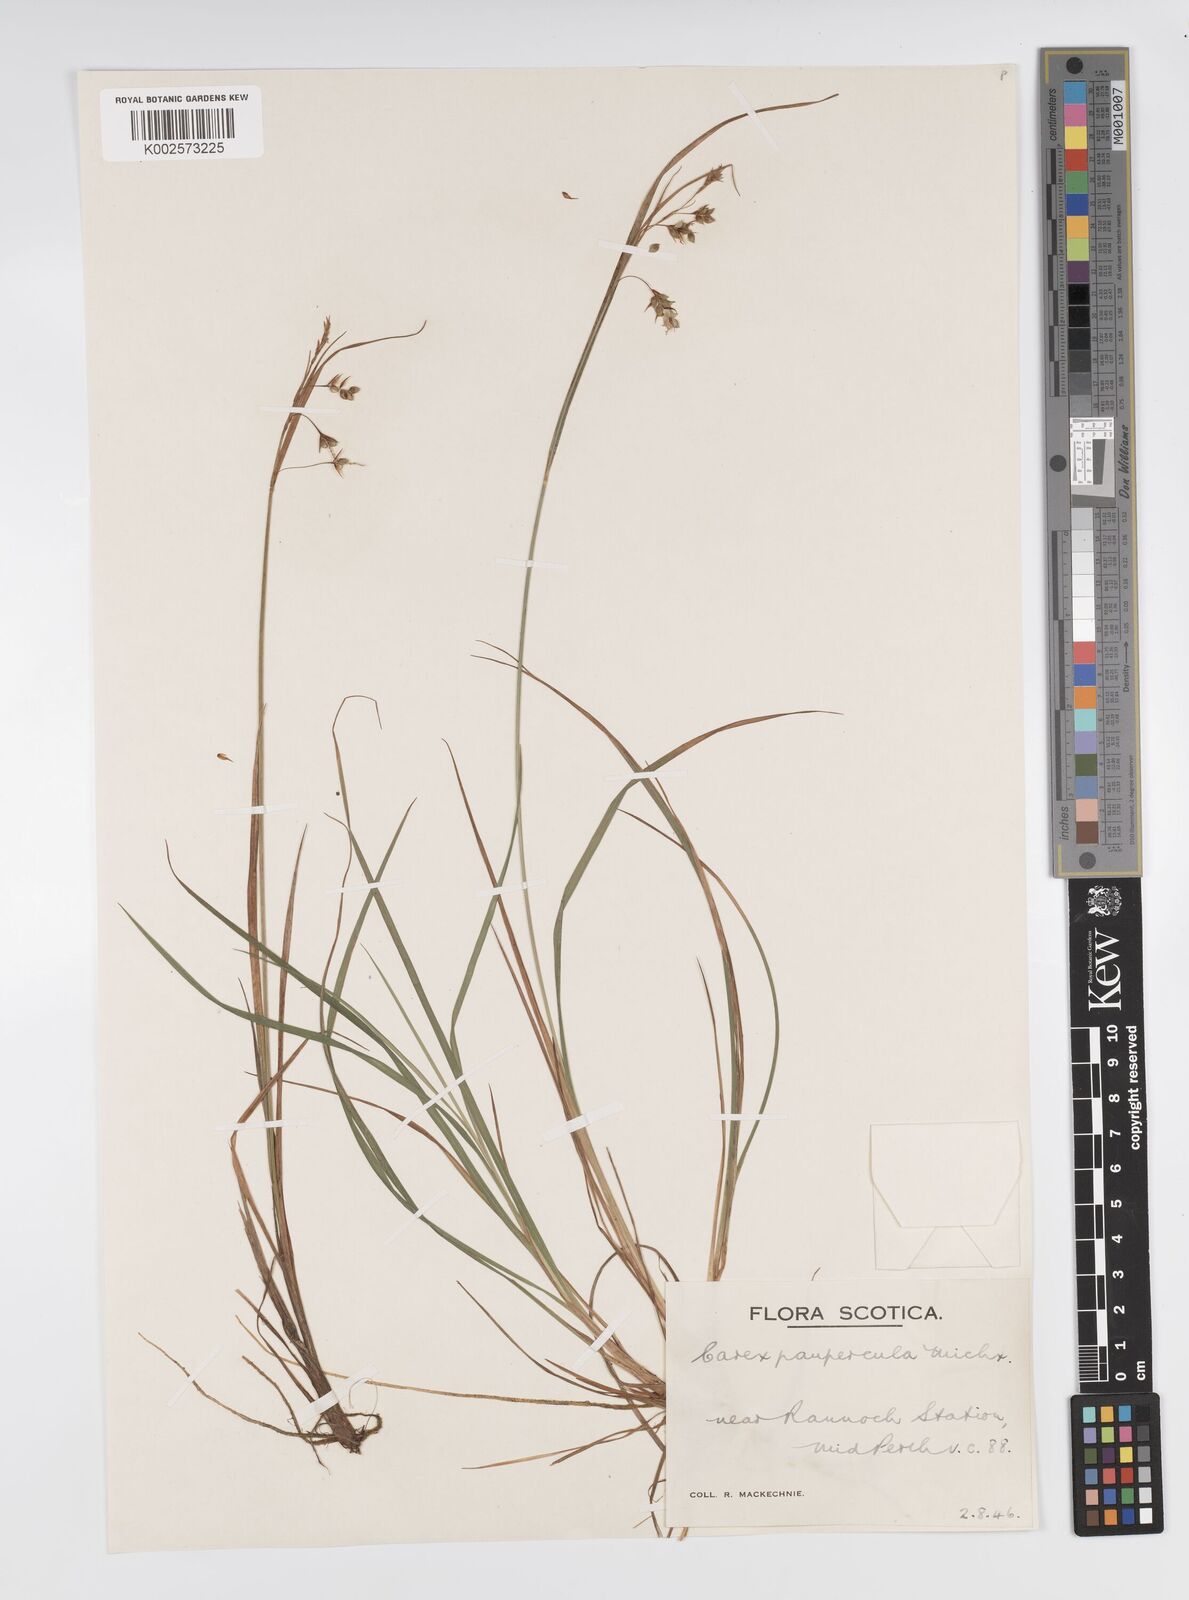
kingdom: Plantae
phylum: Tracheophyta
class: Liliopsida
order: Poales
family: Cyperaceae
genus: Carex
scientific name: Carex magellanica
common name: Bog sedge
